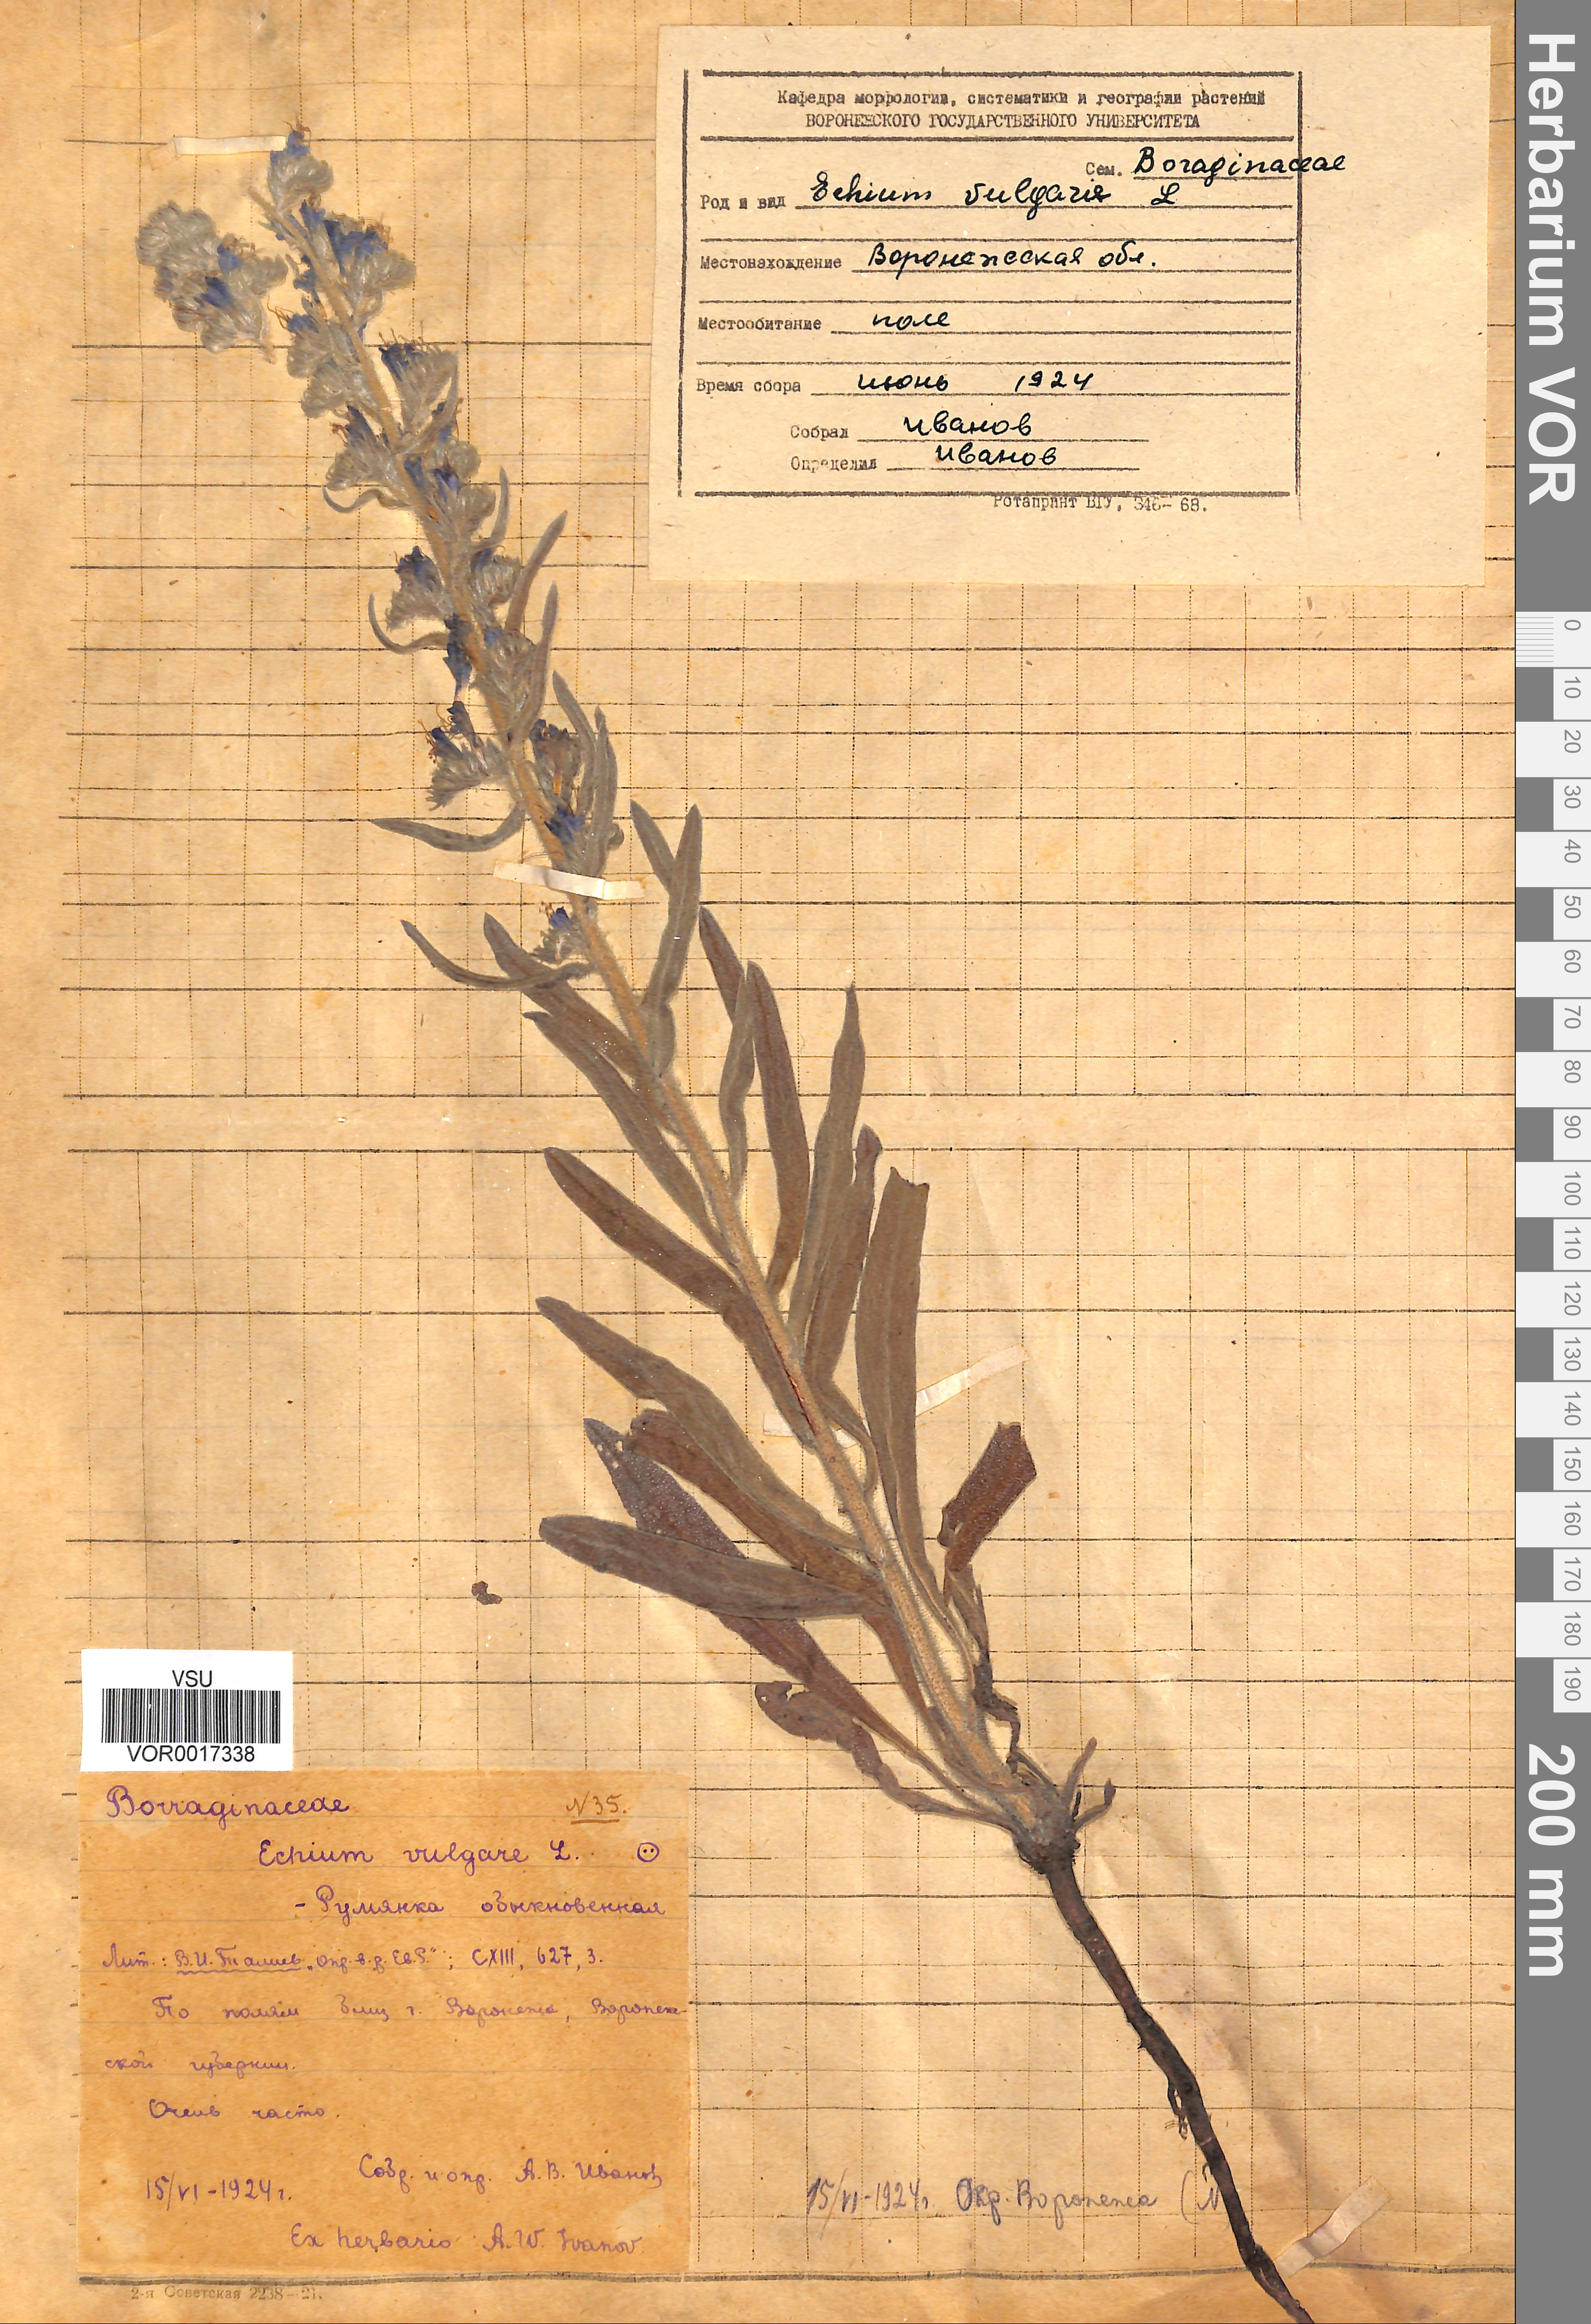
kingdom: Plantae
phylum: Tracheophyta
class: Magnoliopsida
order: Boraginales
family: Boraginaceae
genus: Echium
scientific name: Echium vulgare
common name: Common viper's bugloss
